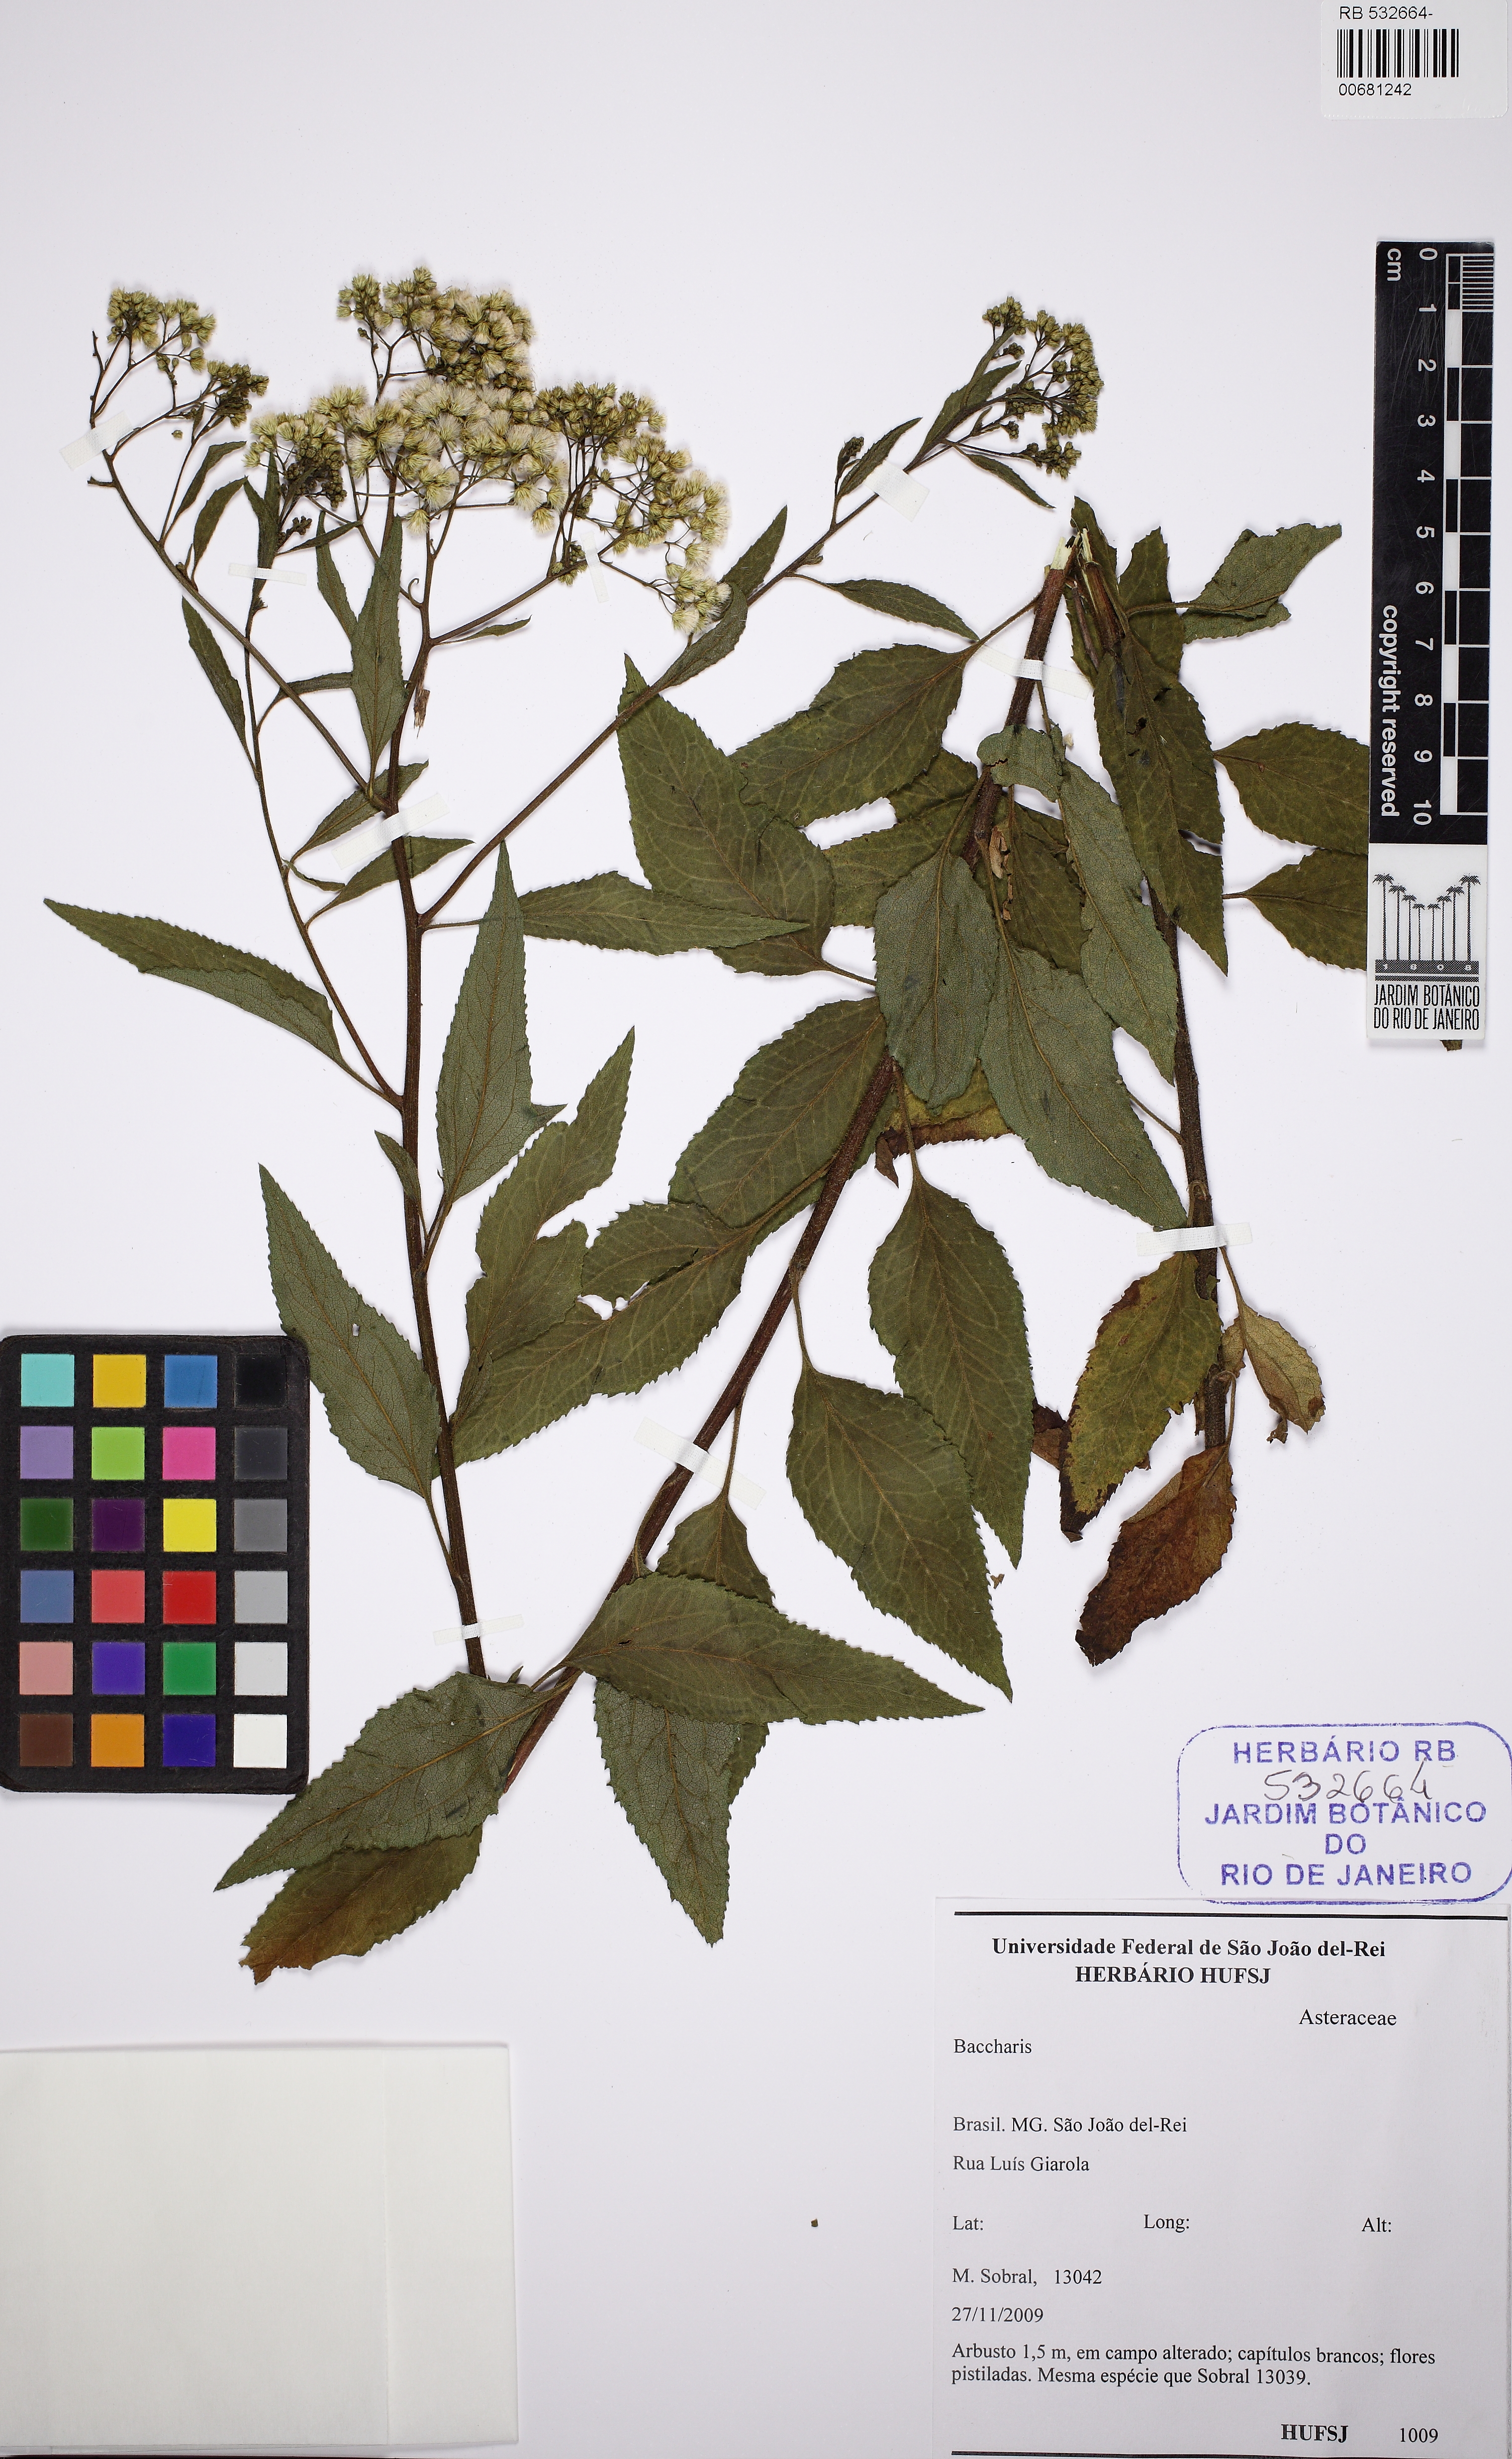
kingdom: Plantae
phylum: Tracheophyta
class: Magnoliopsida
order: Asterales
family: Asteraceae
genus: Baccharis
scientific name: Baccharis serrulata
